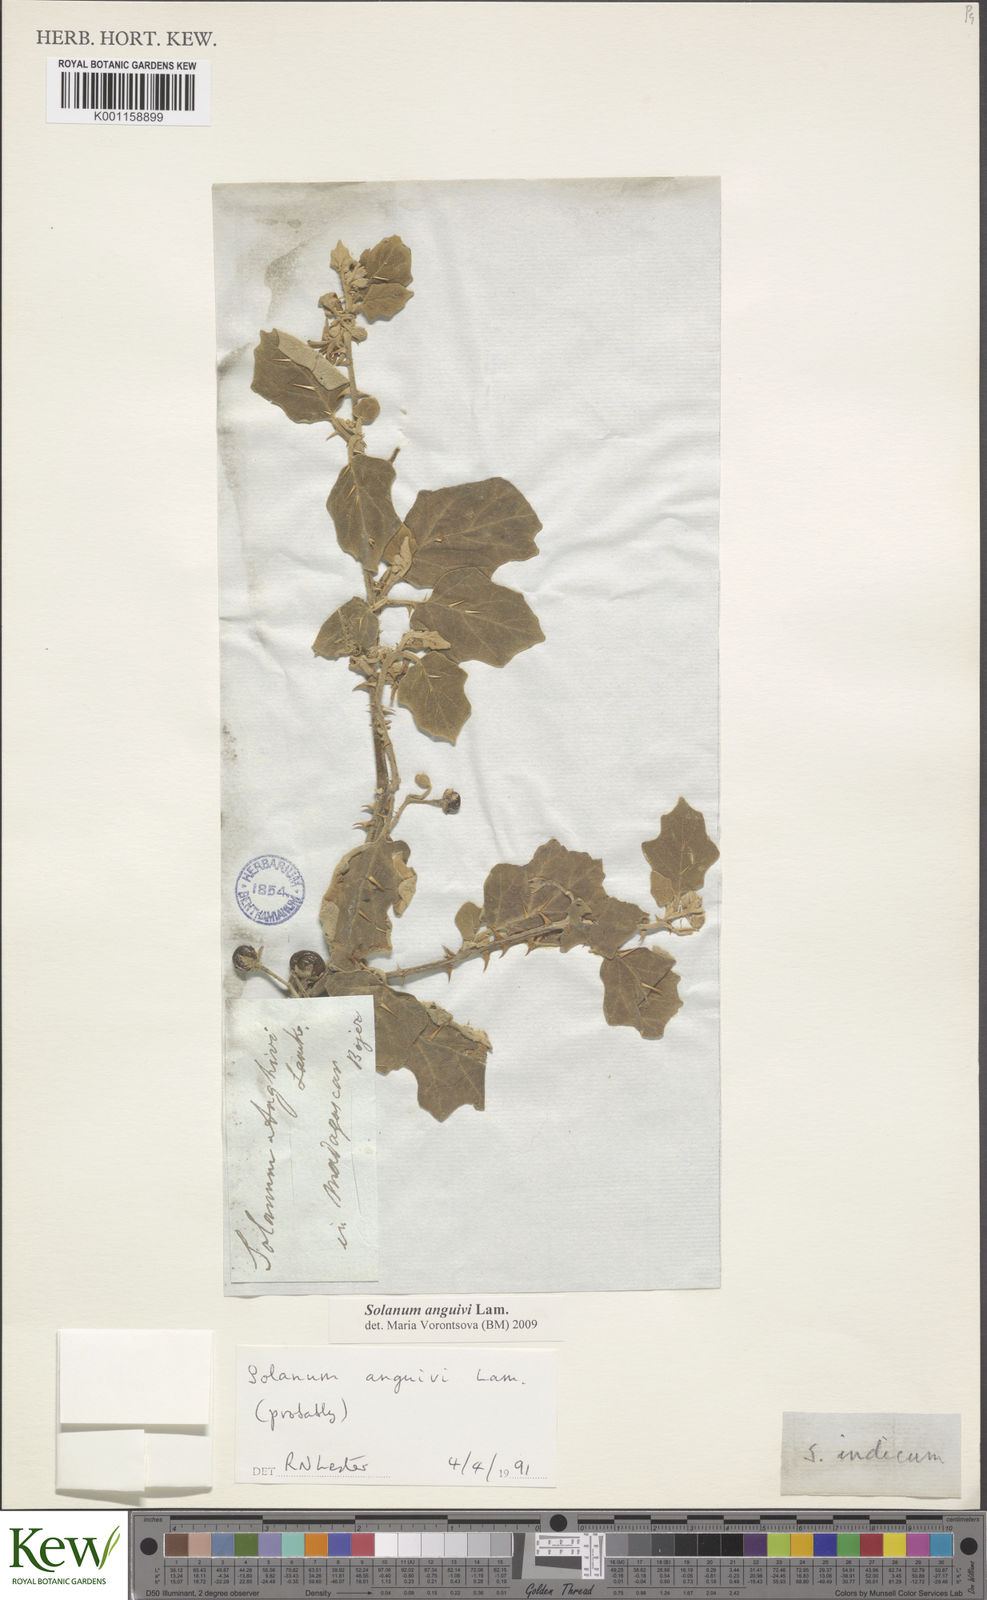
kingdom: Plantae
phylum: Tracheophyta
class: Magnoliopsida
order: Solanales
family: Solanaceae
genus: Solanum
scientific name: Solanum anguivi
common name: Forest bitterberry
